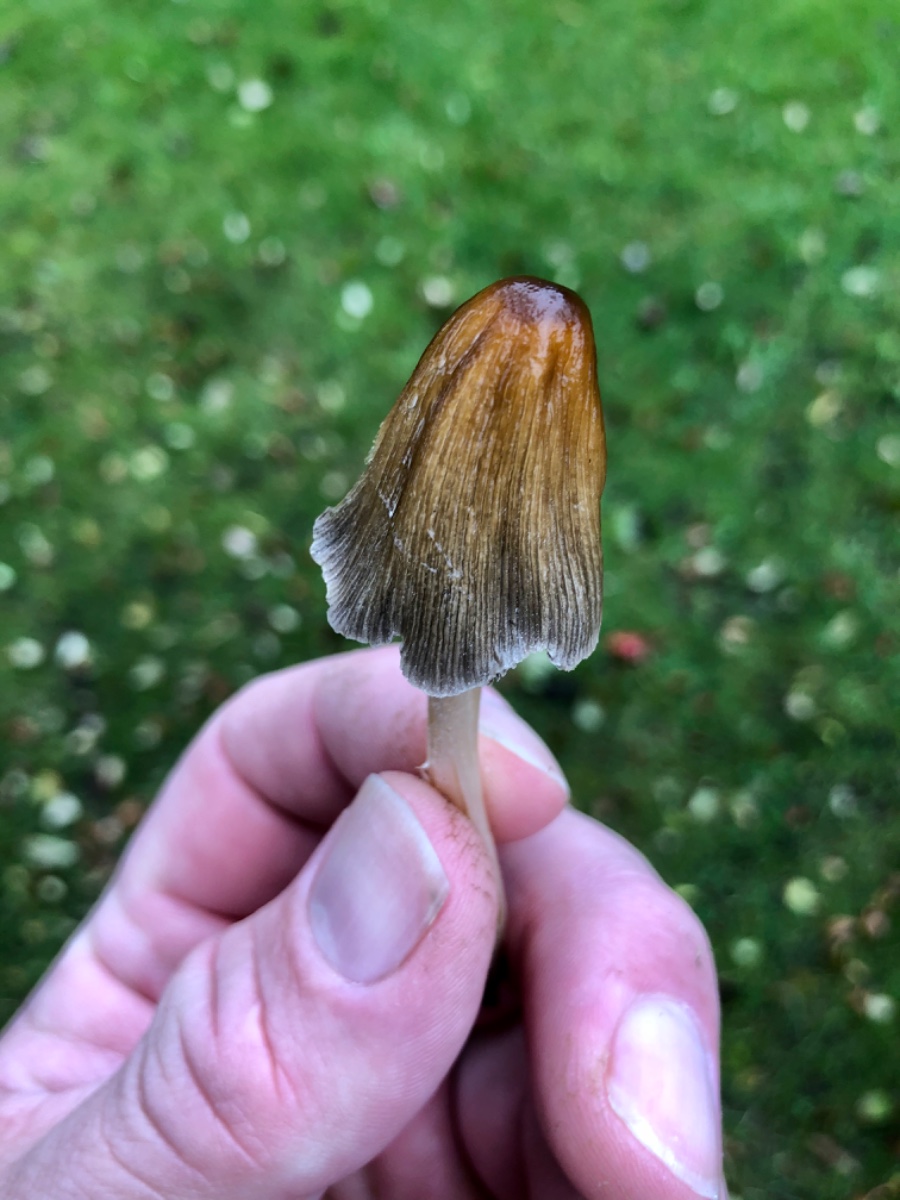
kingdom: Fungi
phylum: Basidiomycota
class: Agaricomycetes
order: Agaricales
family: Psathyrellaceae
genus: Coprinellus
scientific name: Coprinellus micaceus
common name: glimmer-blækhat
